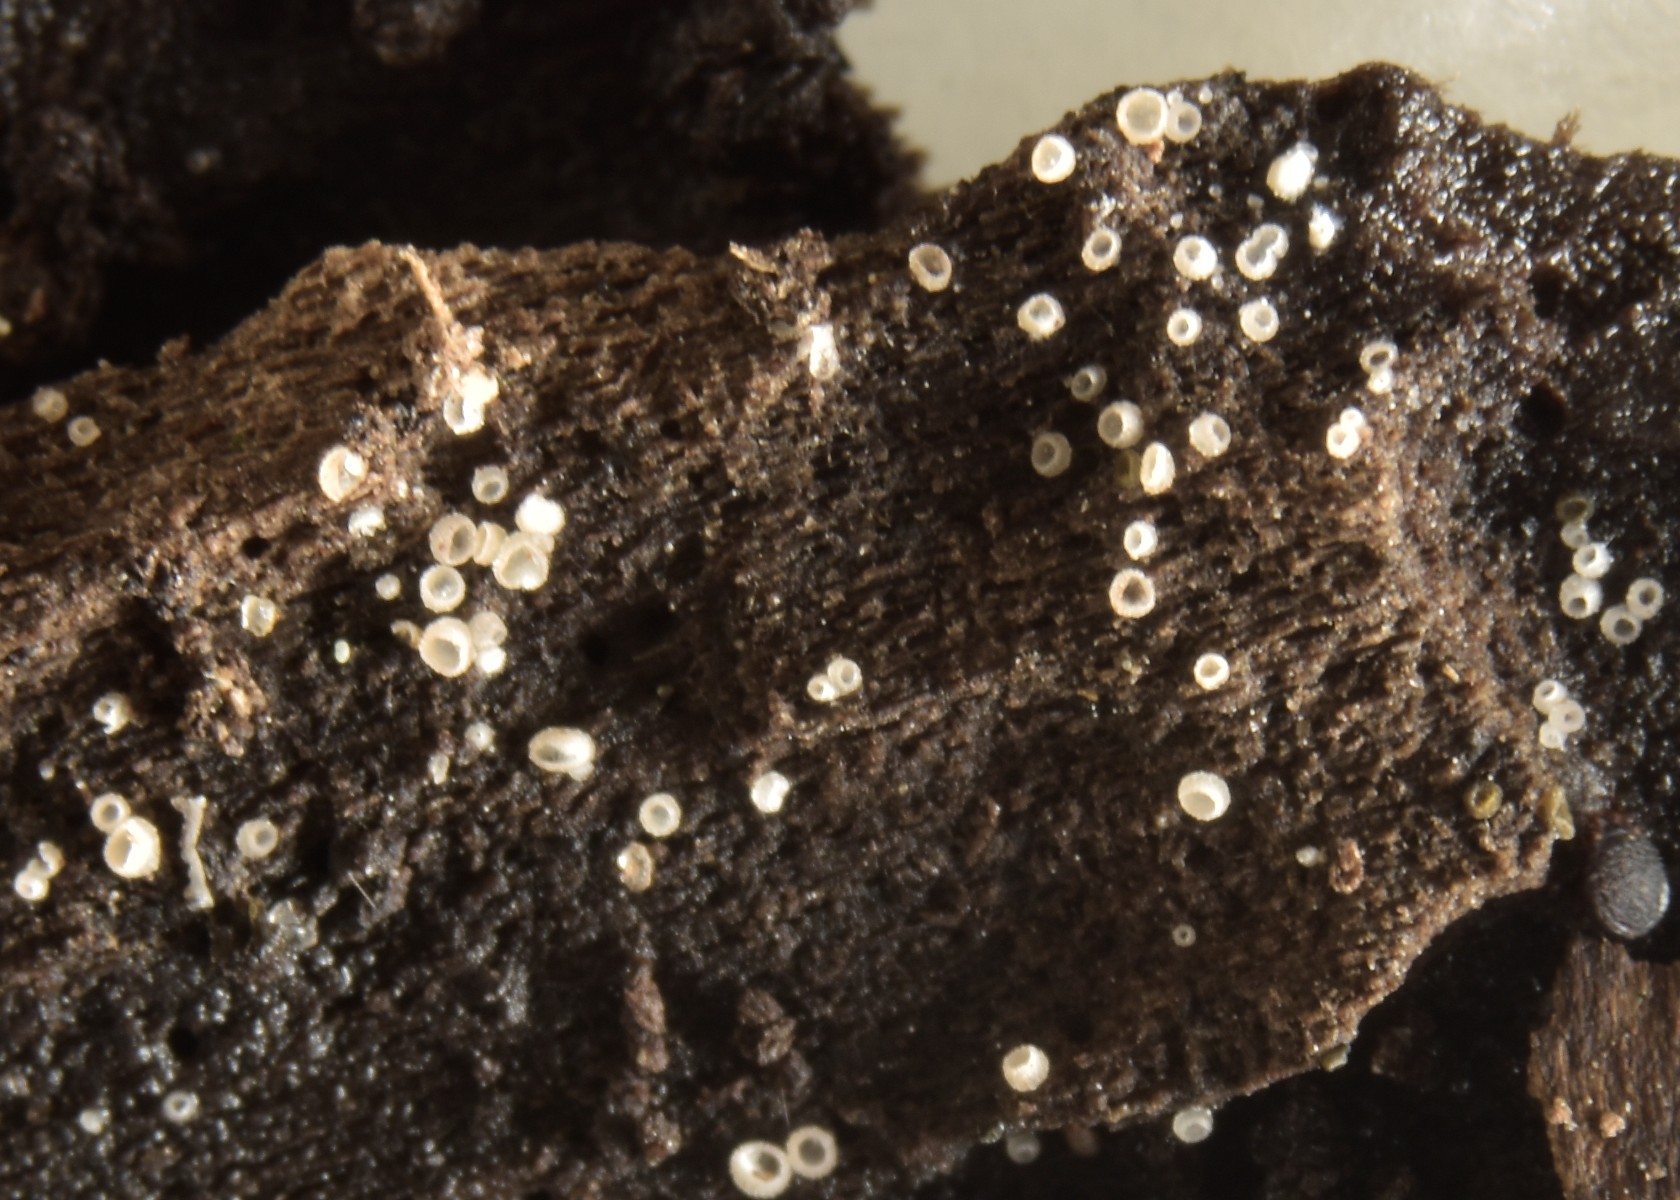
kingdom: Fungi
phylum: Ascomycota
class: Leotiomycetes
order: Helotiales
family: Hyaloscyphaceae
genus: Hyalopeziza
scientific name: Hyalopeziza millepunctata
